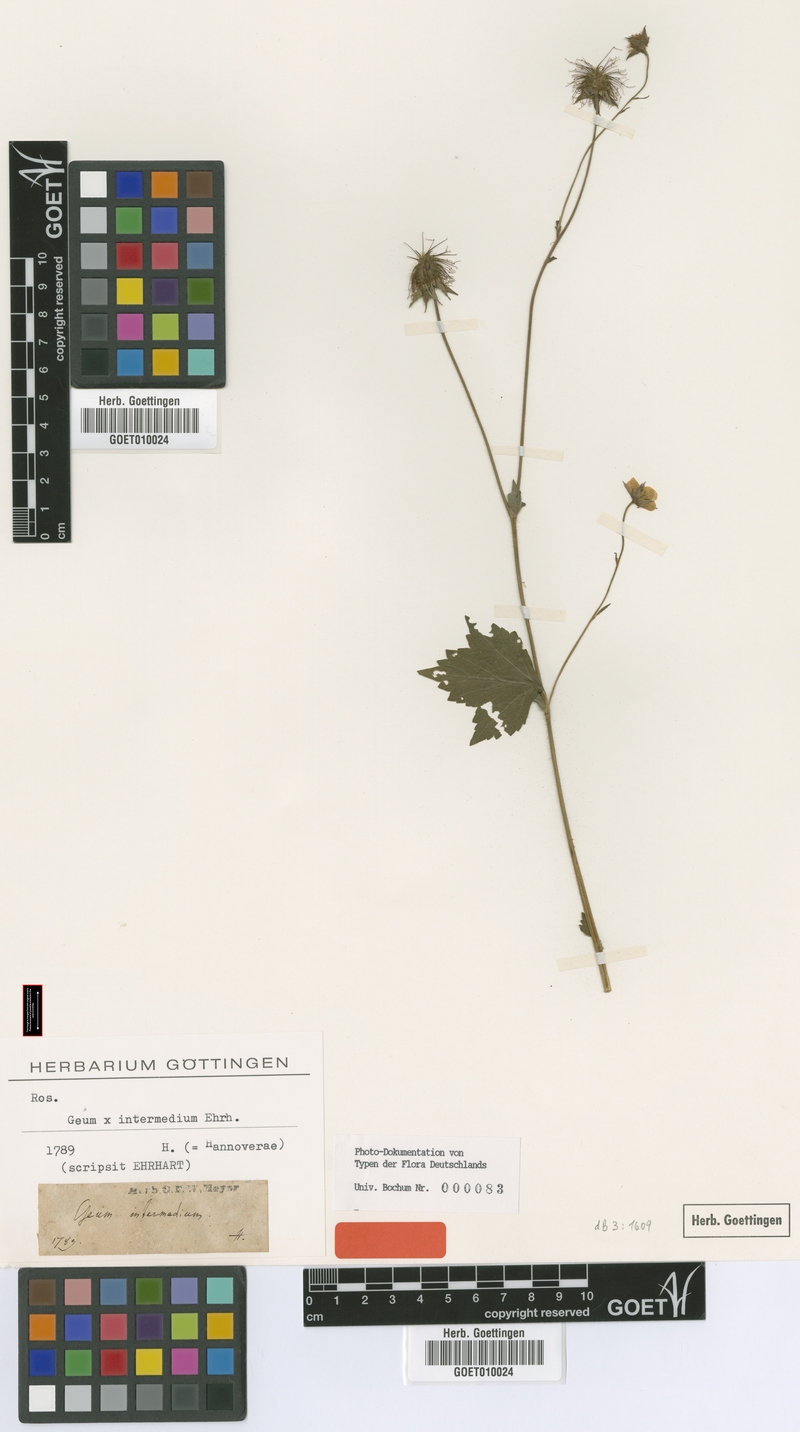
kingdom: Plantae
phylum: Tracheophyta
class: Magnoliopsida
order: Rosales
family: Rosaceae
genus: Geum
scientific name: Geum intermedium
